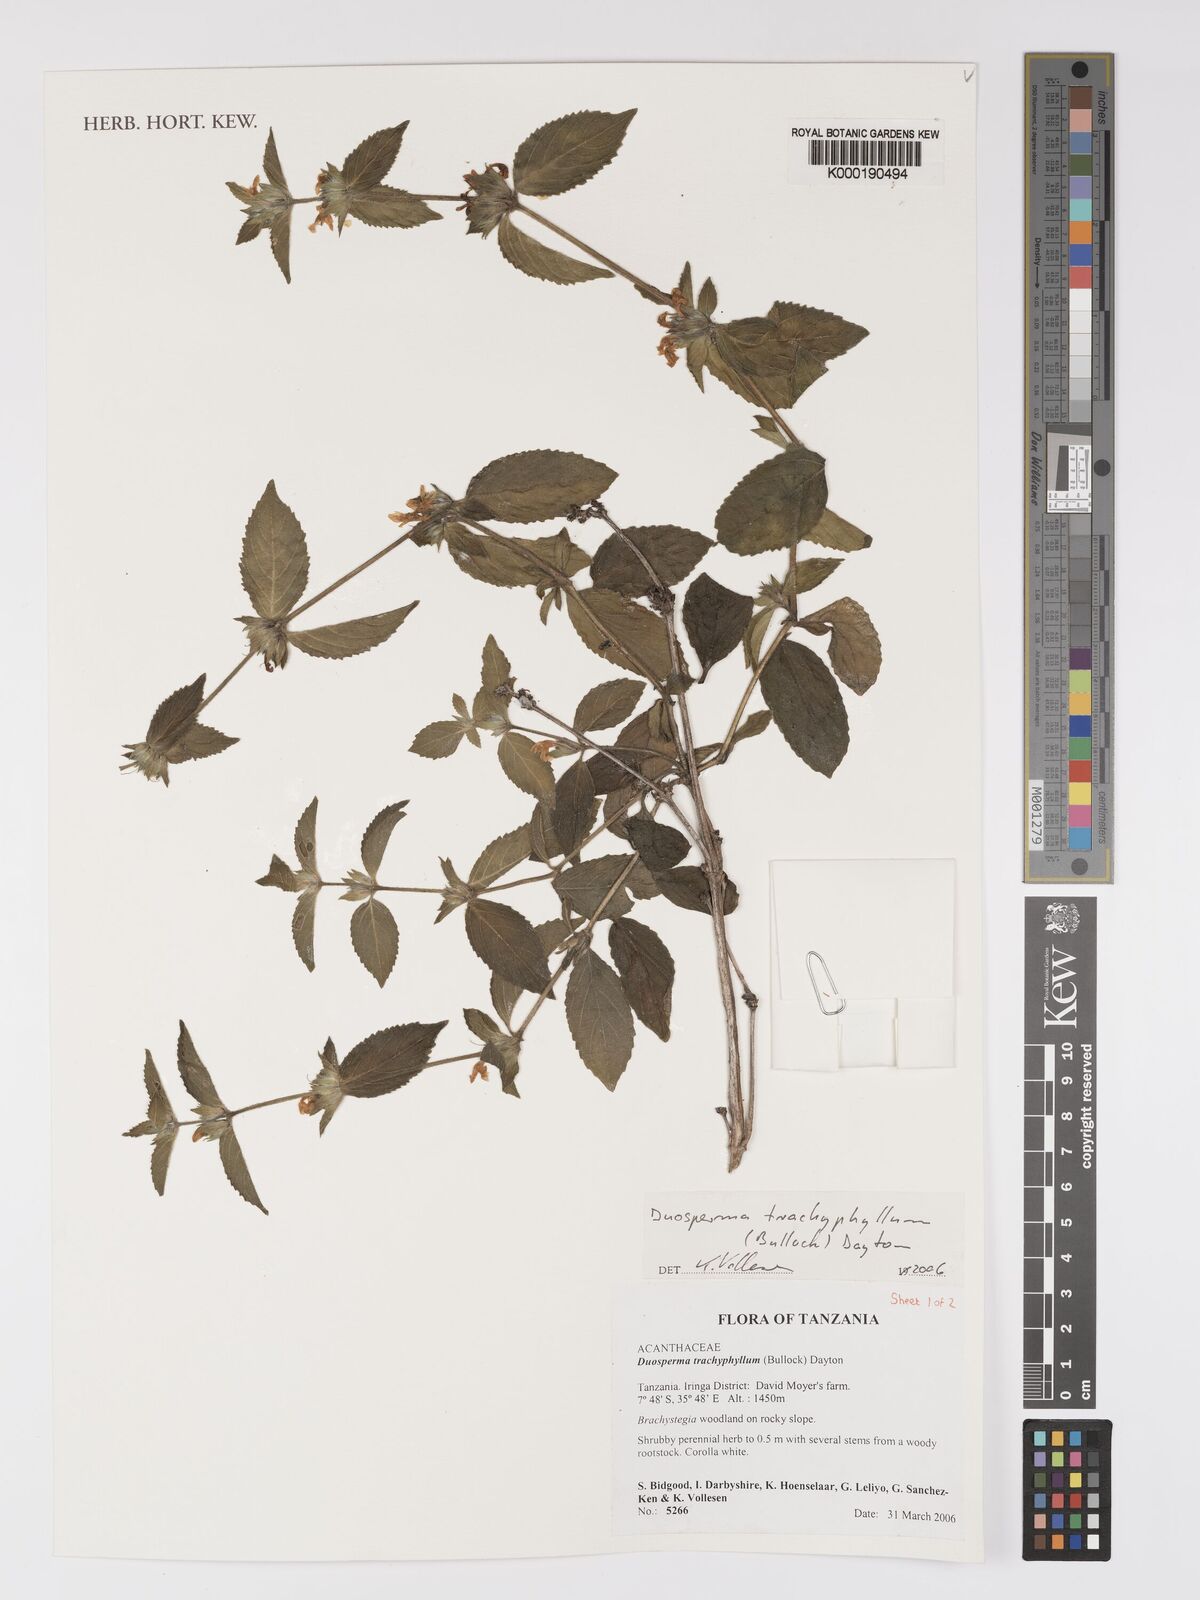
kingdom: Plantae
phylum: Tracheophyta
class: Magnoliopsida
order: Lamiales
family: Acanthaceae
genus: Duosperma
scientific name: Duosperma trachyphyllum
